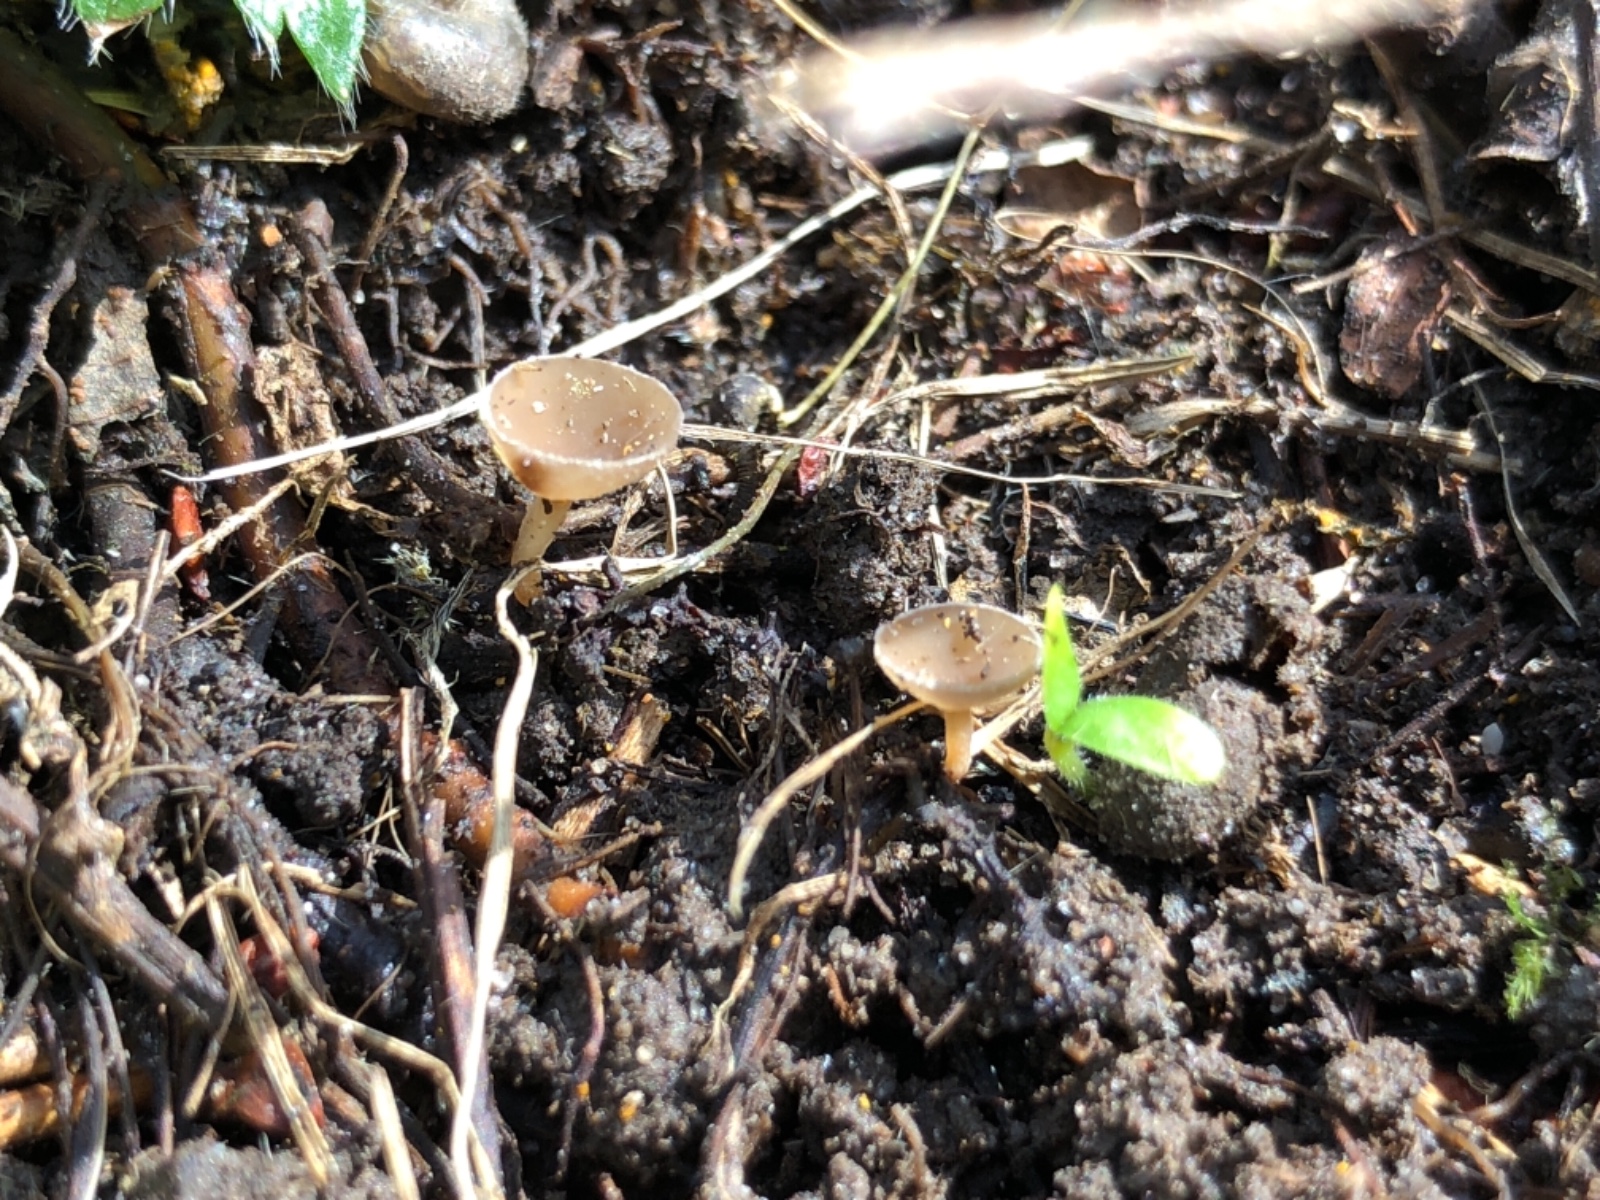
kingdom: Fungi
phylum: Ascomycota
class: Leotiomycetes
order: Helotiales
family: Sclerotiniaceae
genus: Ciboria
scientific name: Ciboria amentacea
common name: ellerakle-knoldskive
